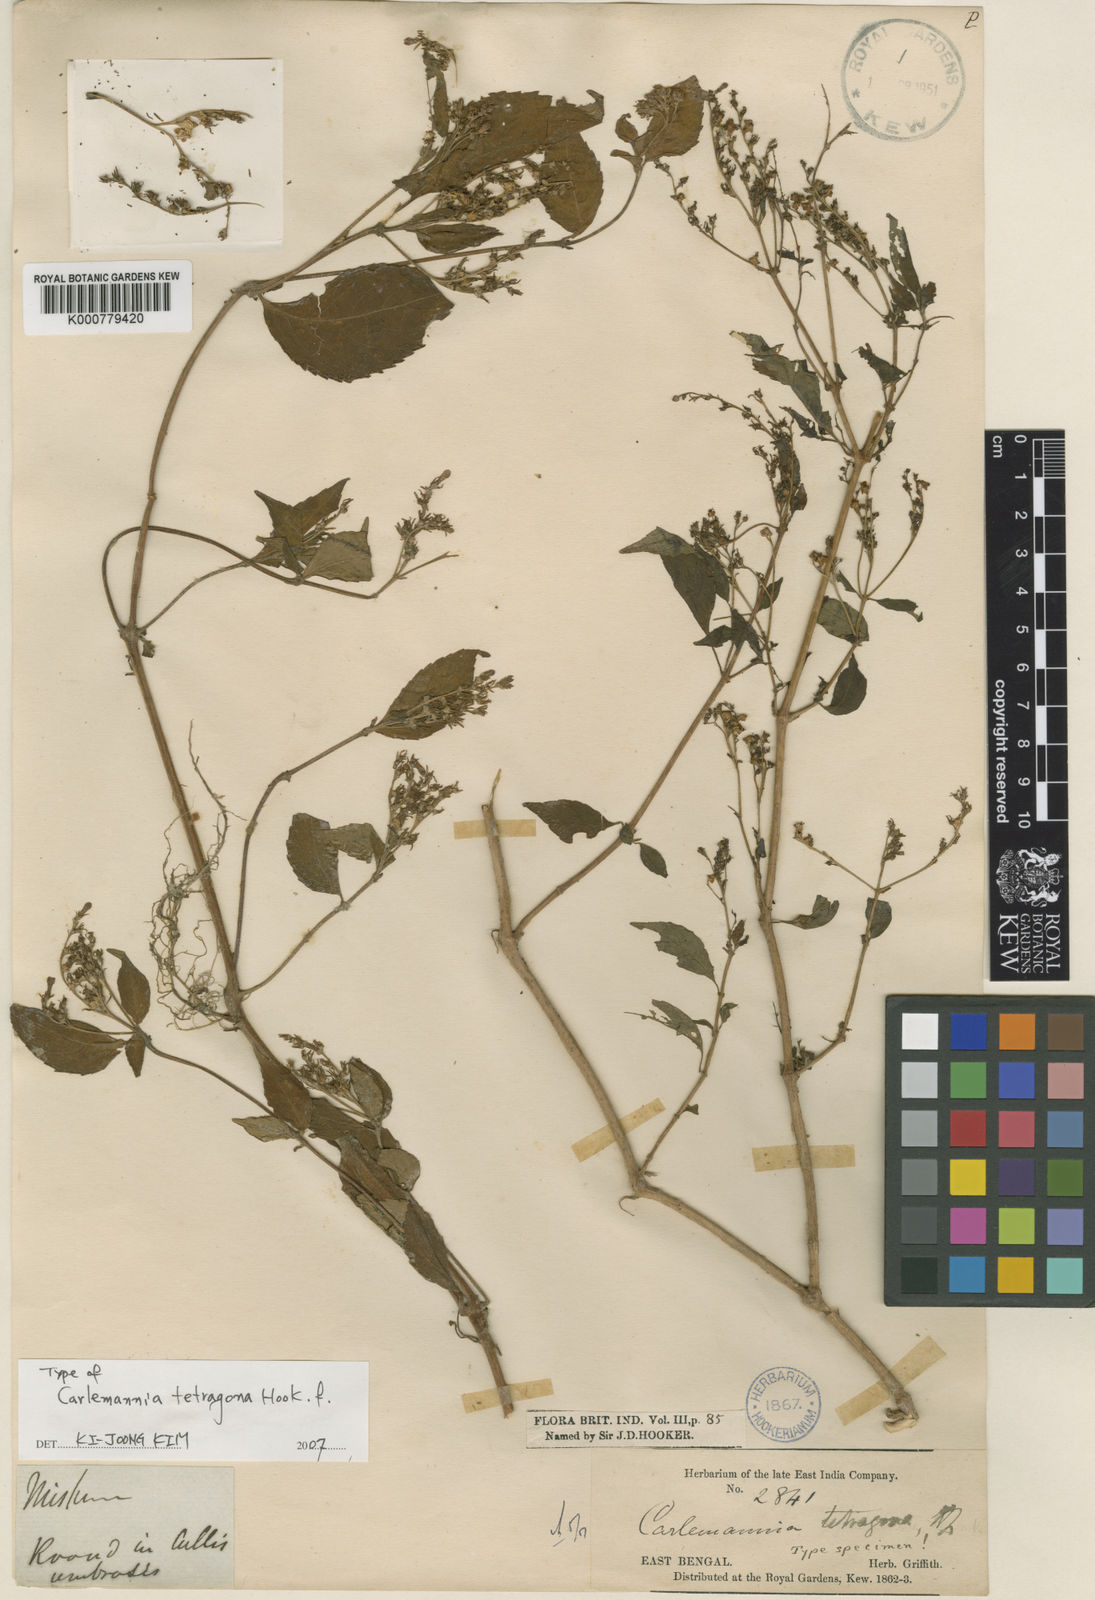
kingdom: Plantae
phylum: Tracheophyta
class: Magnoliopsida
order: Lamiales
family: Carlemanniaceae
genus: Carlemannia
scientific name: Carlemannia tetragona
